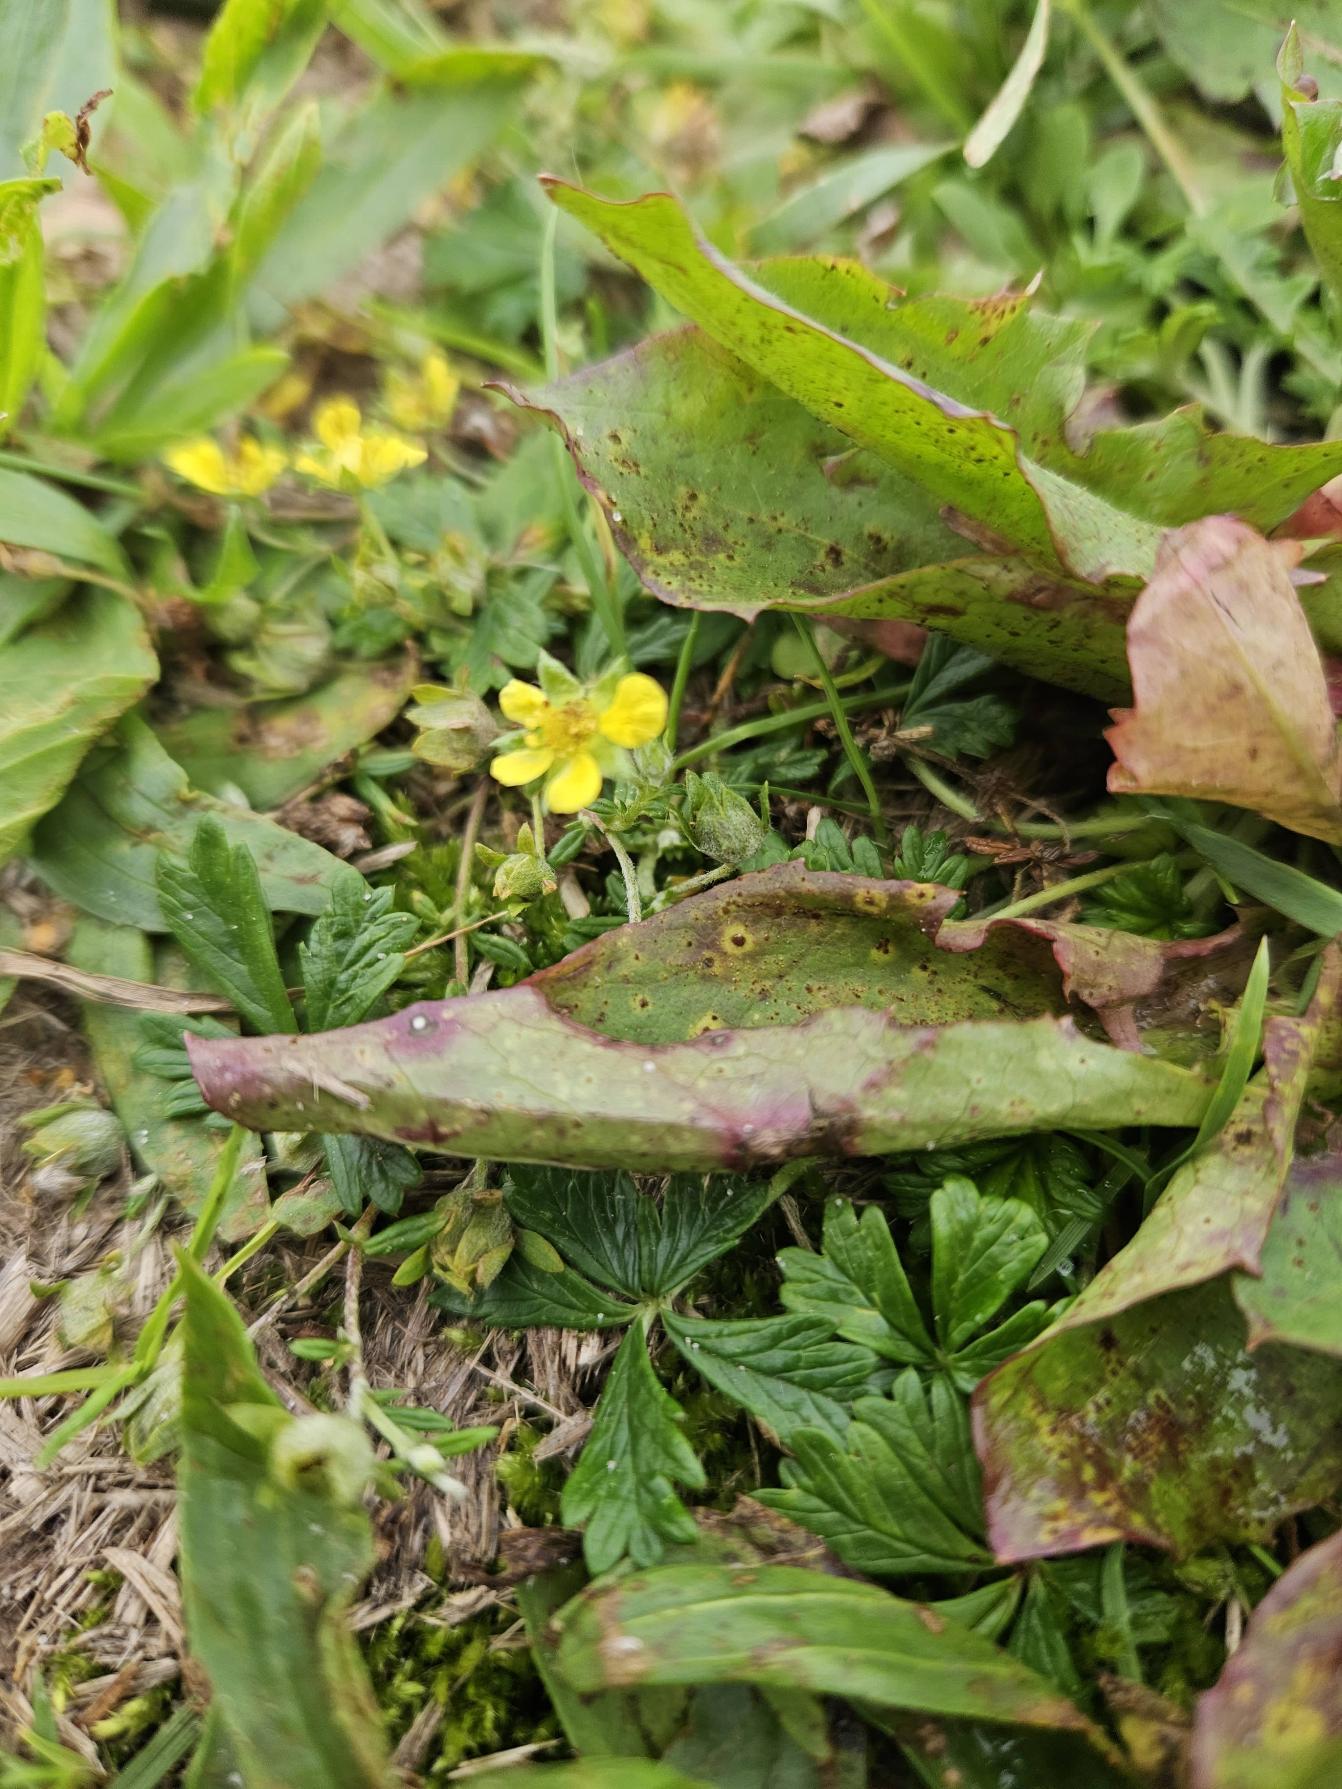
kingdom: Plantae
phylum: Tracheophyta
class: Magnoliopsida
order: Rosales
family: Rosaceae
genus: Potentilla
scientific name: Potentilla argentea
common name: Sølv-potentil
